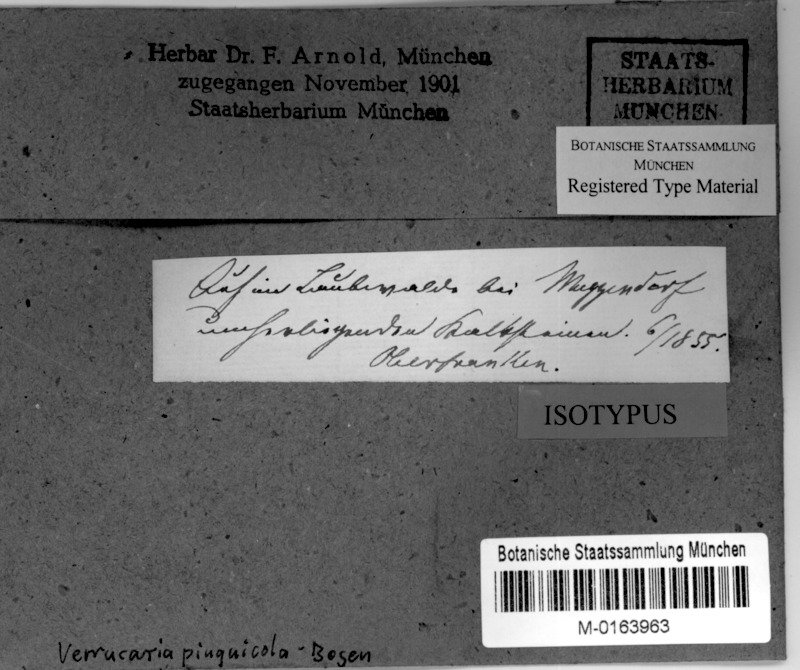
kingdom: Fungi
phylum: Ascomycota
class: Eurotiomycetes
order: Verrucariales
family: Verrucariaceae
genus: Verrucaria
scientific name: Verrucaria pinguicula
